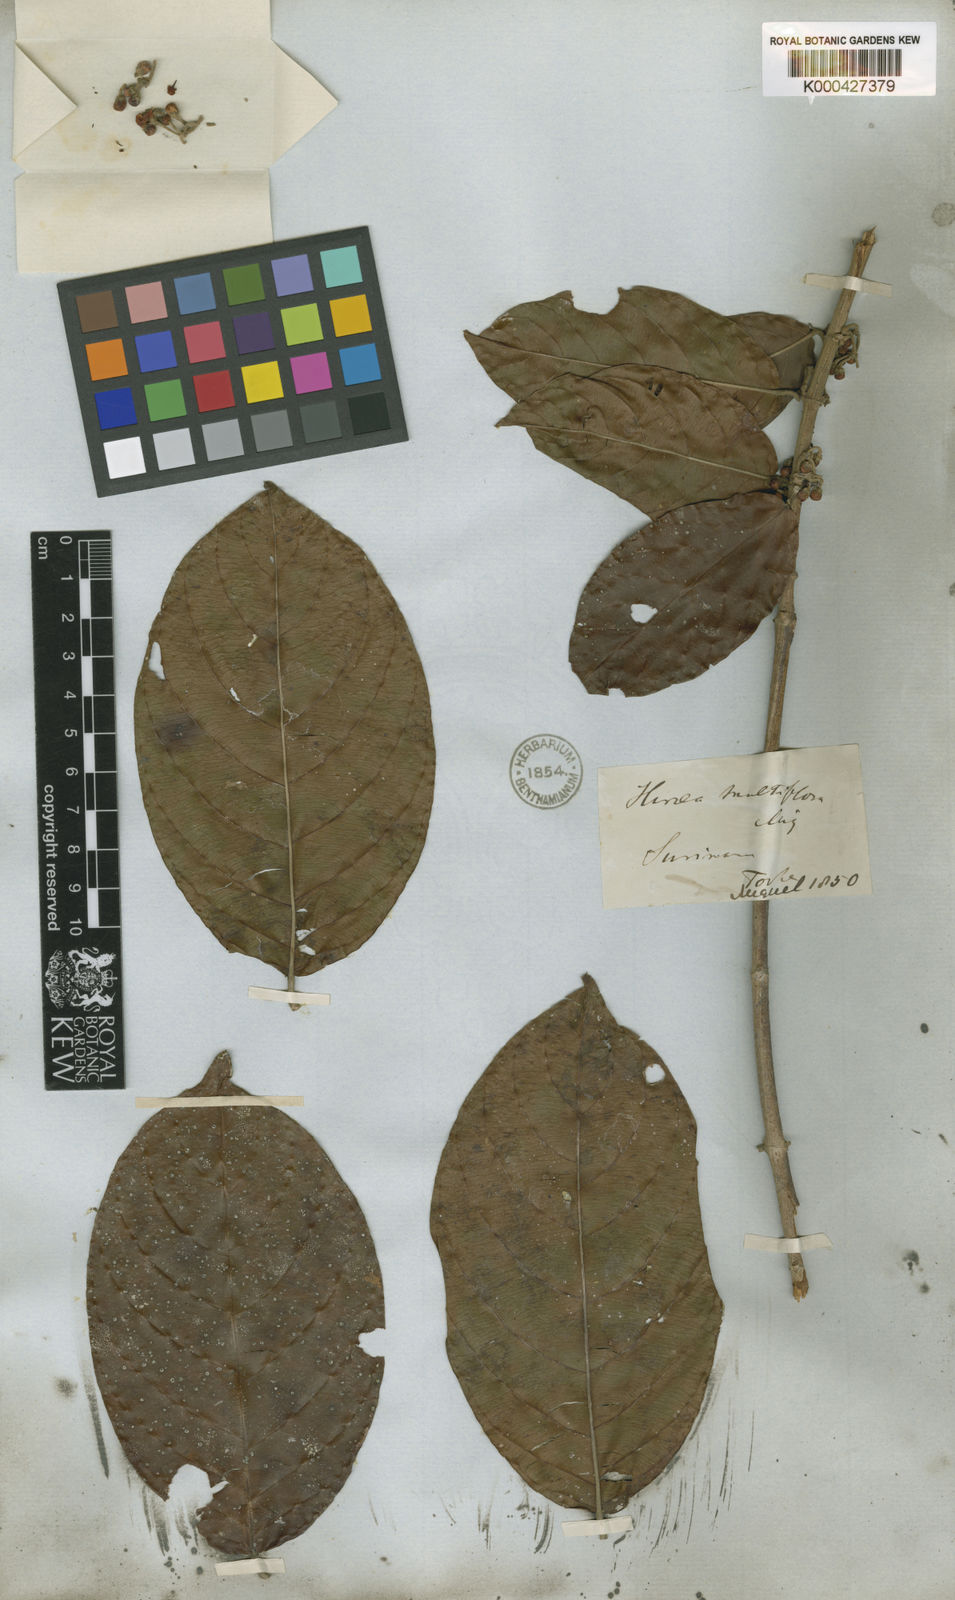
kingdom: Plantae
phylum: Tracheophyta
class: Magnoliopsida
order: Malpighiales
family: Malpighiaceae
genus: Hiraea
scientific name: Hiraea fagifolia
